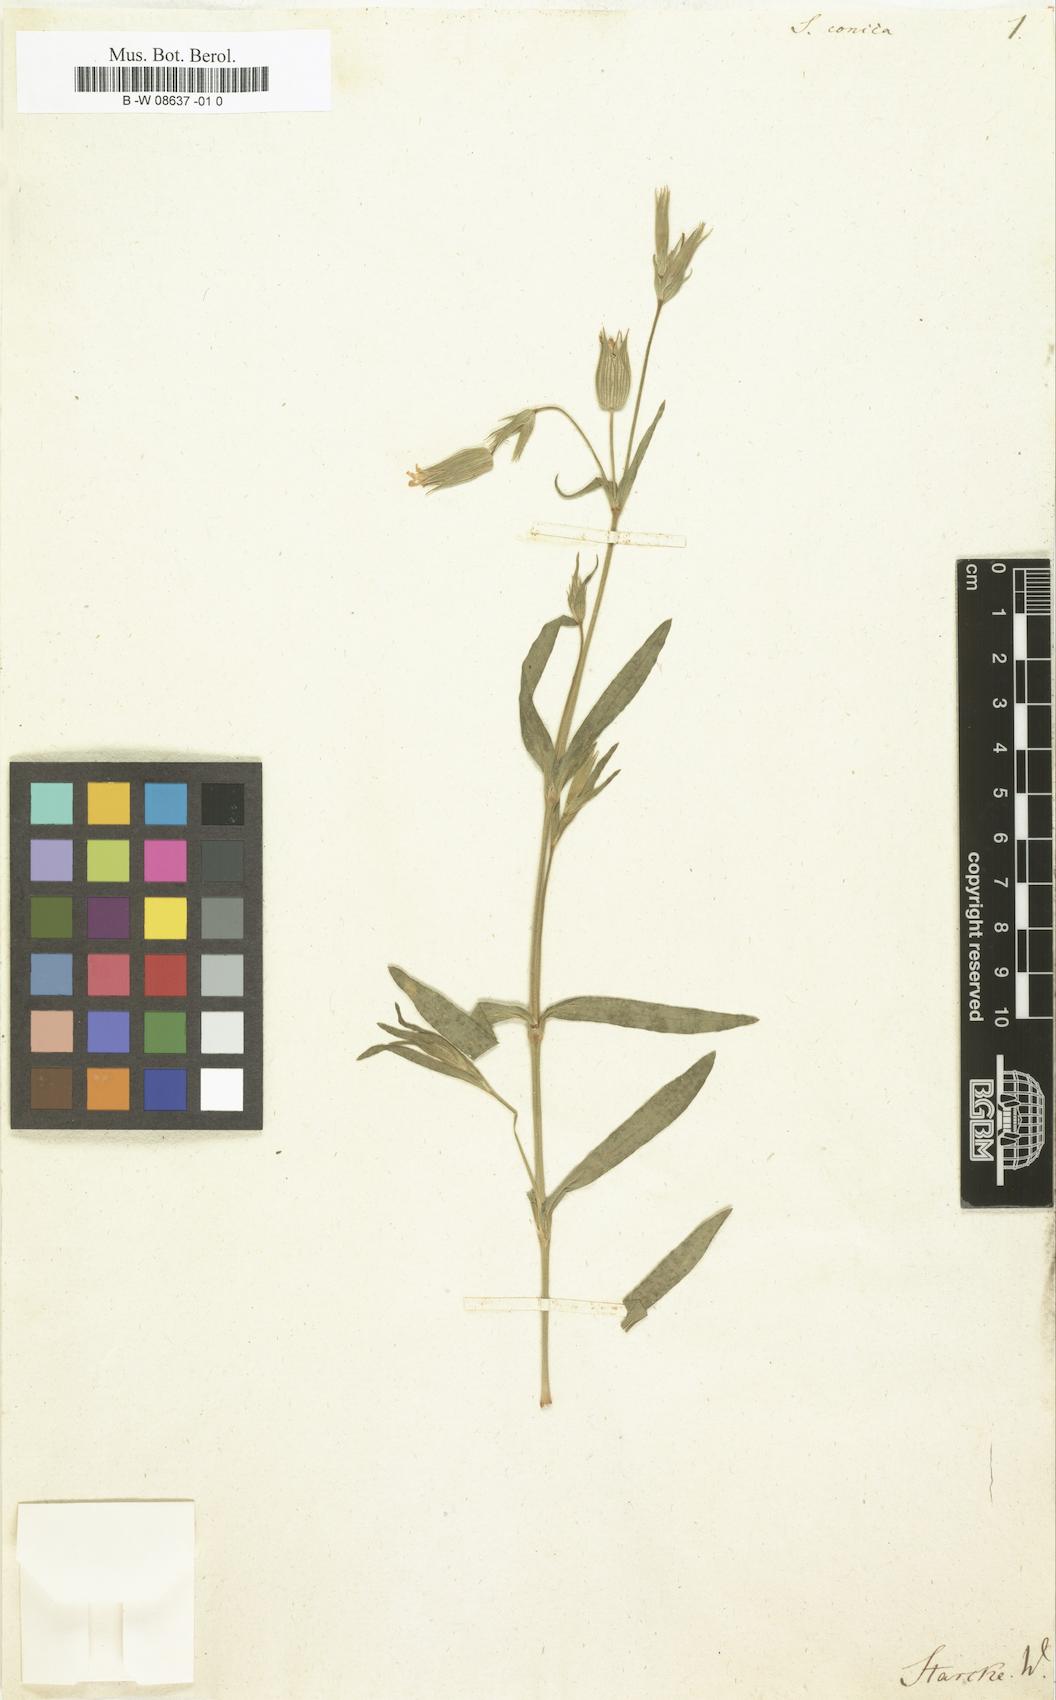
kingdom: Plantae
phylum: Tracheophyta
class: Magnoliopsida
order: Caryophyllales
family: Caryophyllaceae
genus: Silene
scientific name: Silene conica
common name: Sand catchfly
